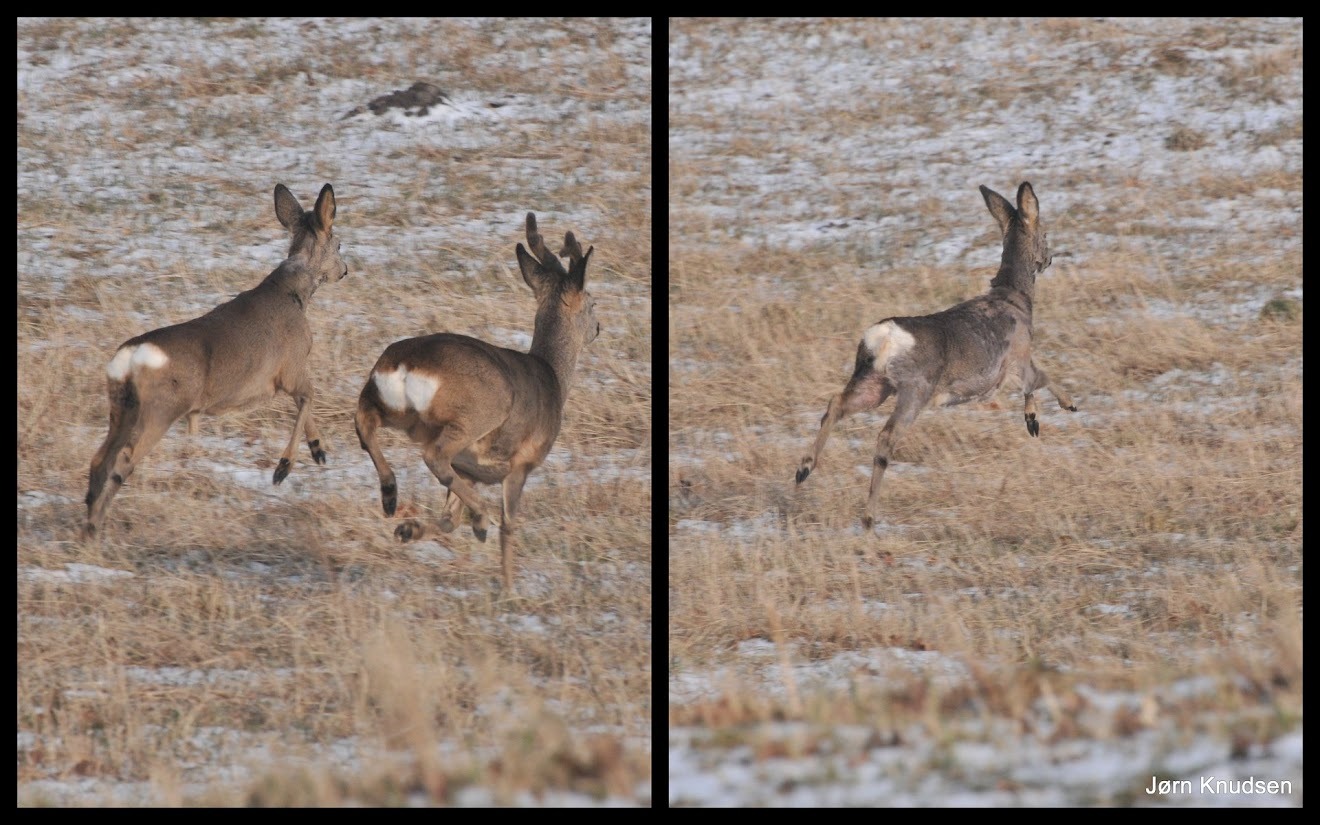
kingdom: Animalia
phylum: Chordata
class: Mammalia
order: Artiodactyla
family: Cervidae
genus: Capreolus
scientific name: Capreolus capreolus
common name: Rådyr
